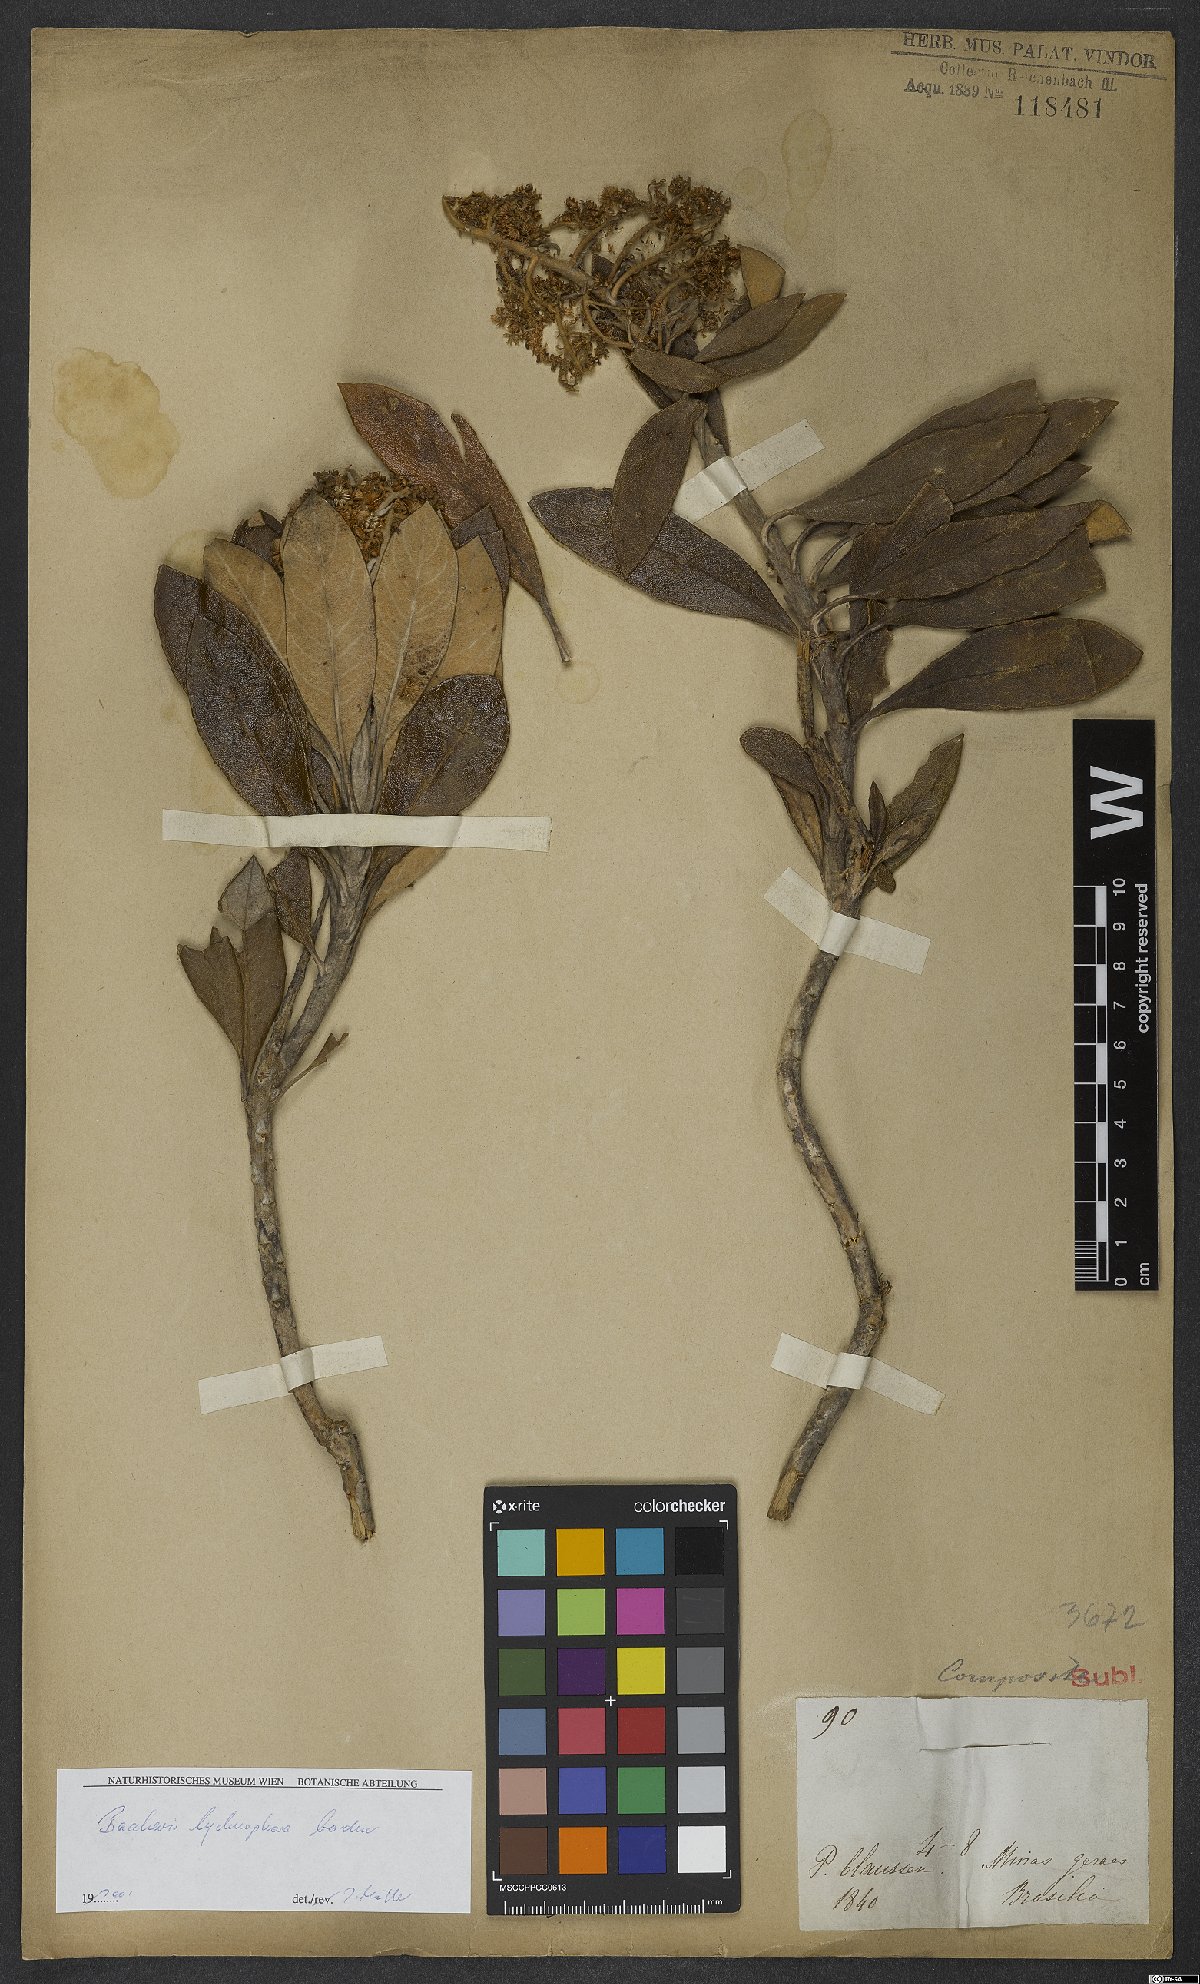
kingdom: Plantae
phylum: Tracheophyta
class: Magnoliopsida
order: Asterales
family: Asteraceae
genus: Baccharis
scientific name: Baccharis lychnophora
